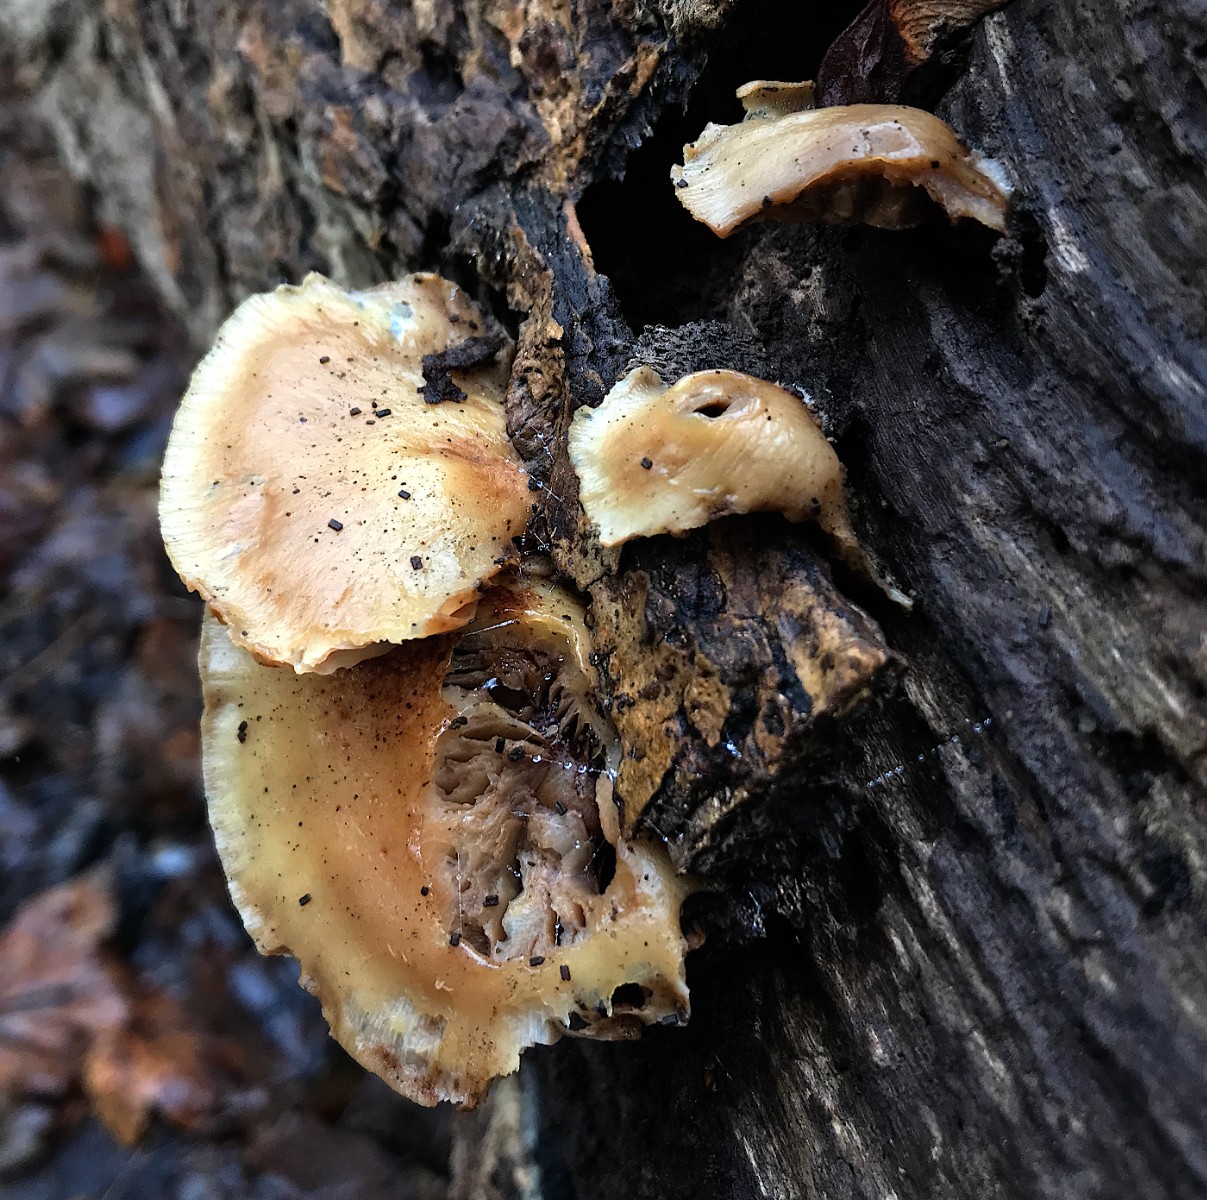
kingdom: Fungi
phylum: Basidiomycota
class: Agaricomycetes
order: Agaricales
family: Crepidotaceae
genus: Crepidotus
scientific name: Crepidotus mollis
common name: blød muslingesvamp
